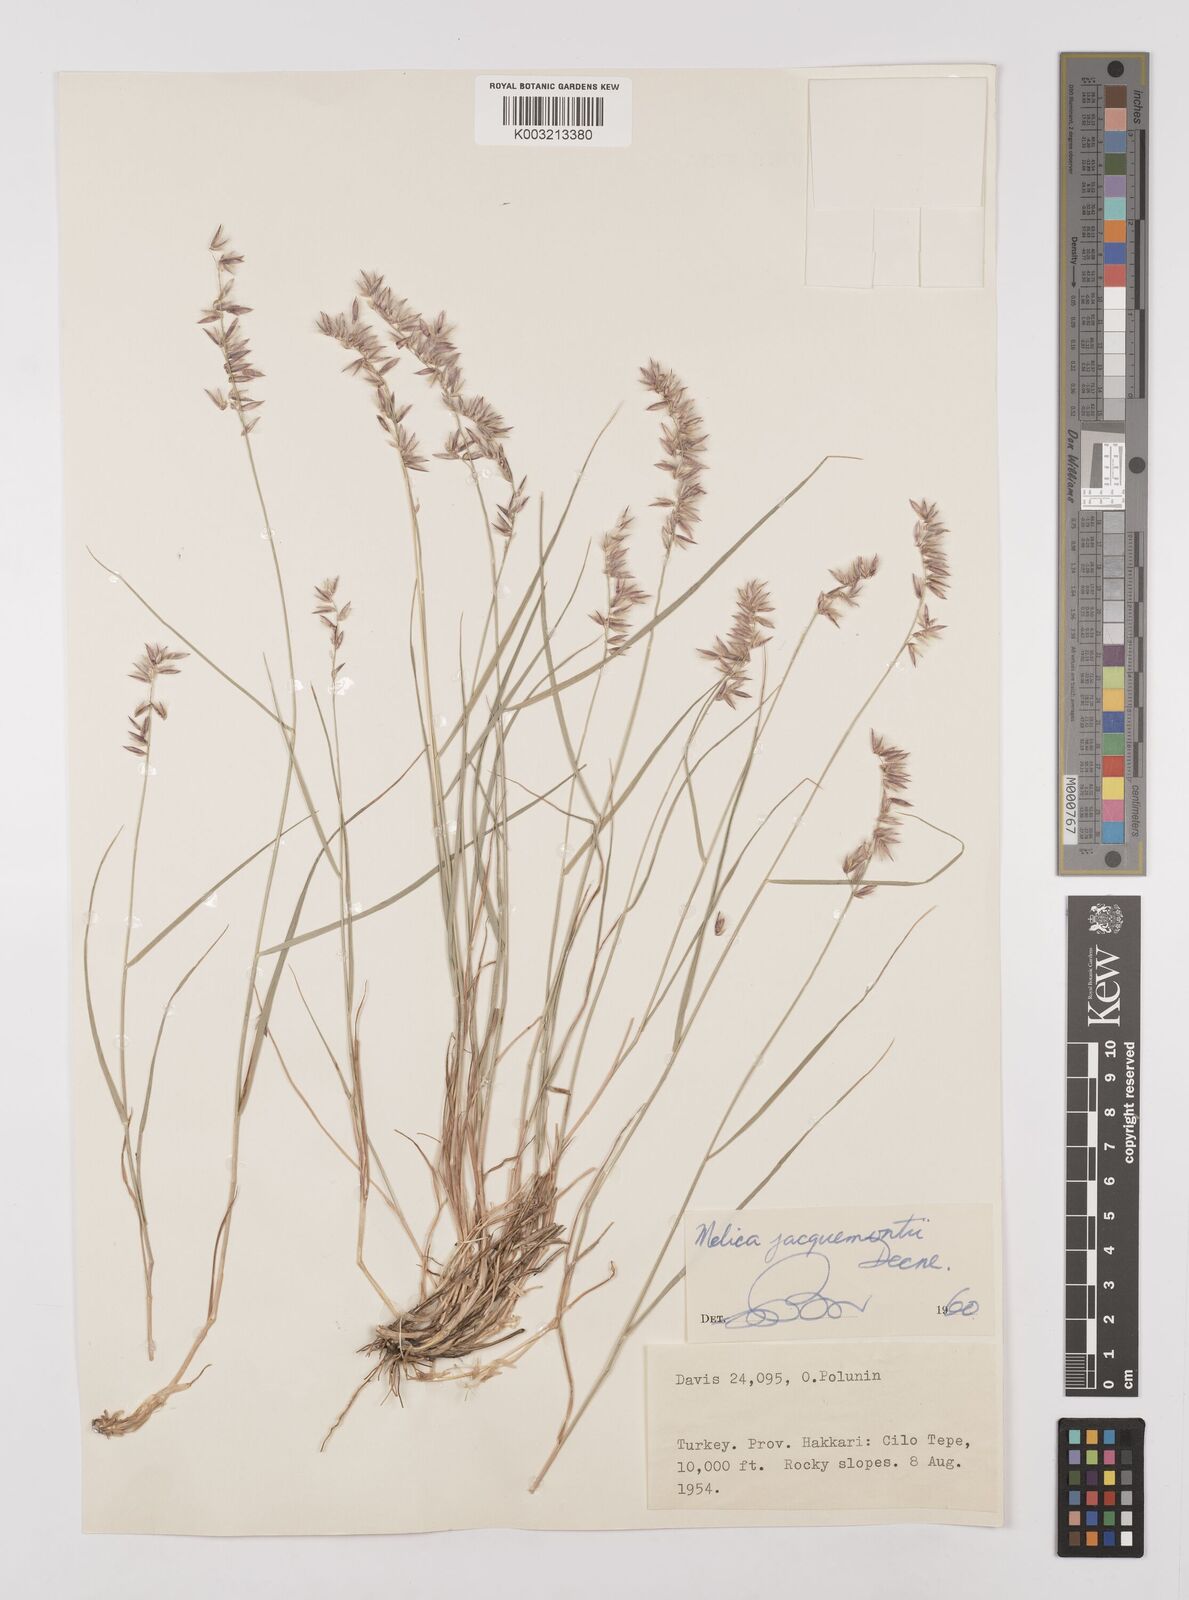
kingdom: Plantae
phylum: Tracheophyta
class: Liliopsida
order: Poales
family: Poaceae
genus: Melica
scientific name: Melica persica
